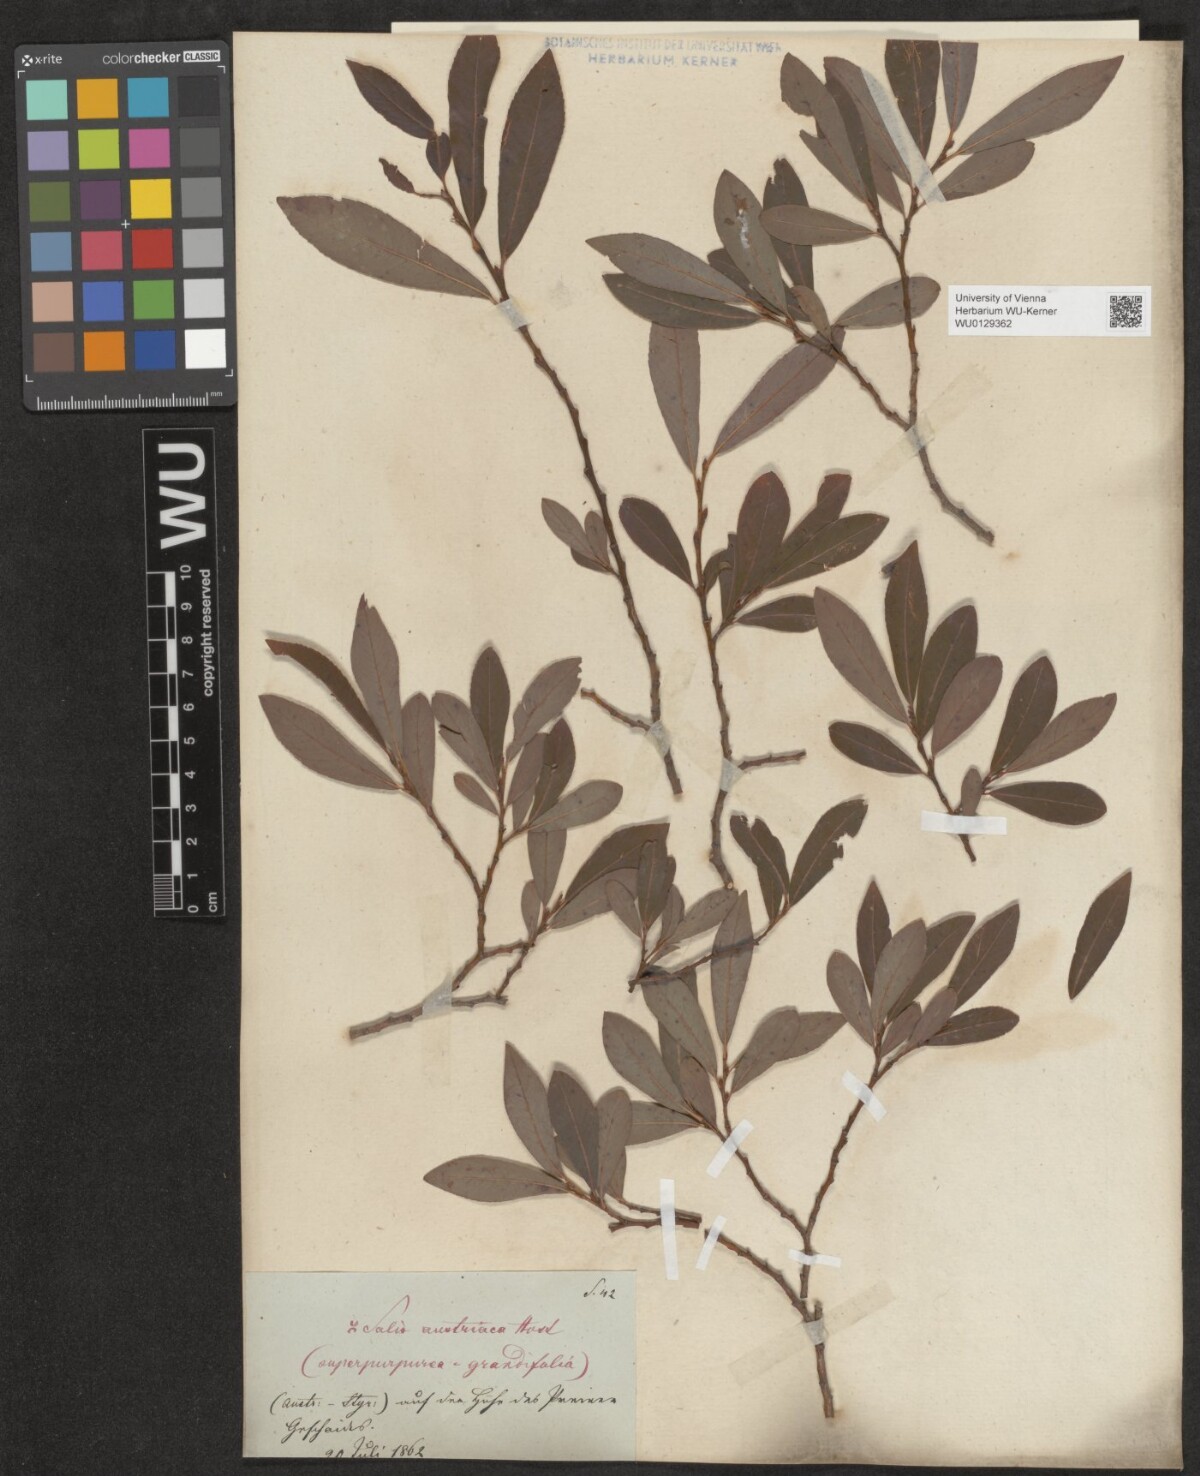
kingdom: Plantae
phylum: Tracheophyta
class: Magnoliopsida
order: Malpighiales
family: Salicaceae
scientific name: Salicaceae
